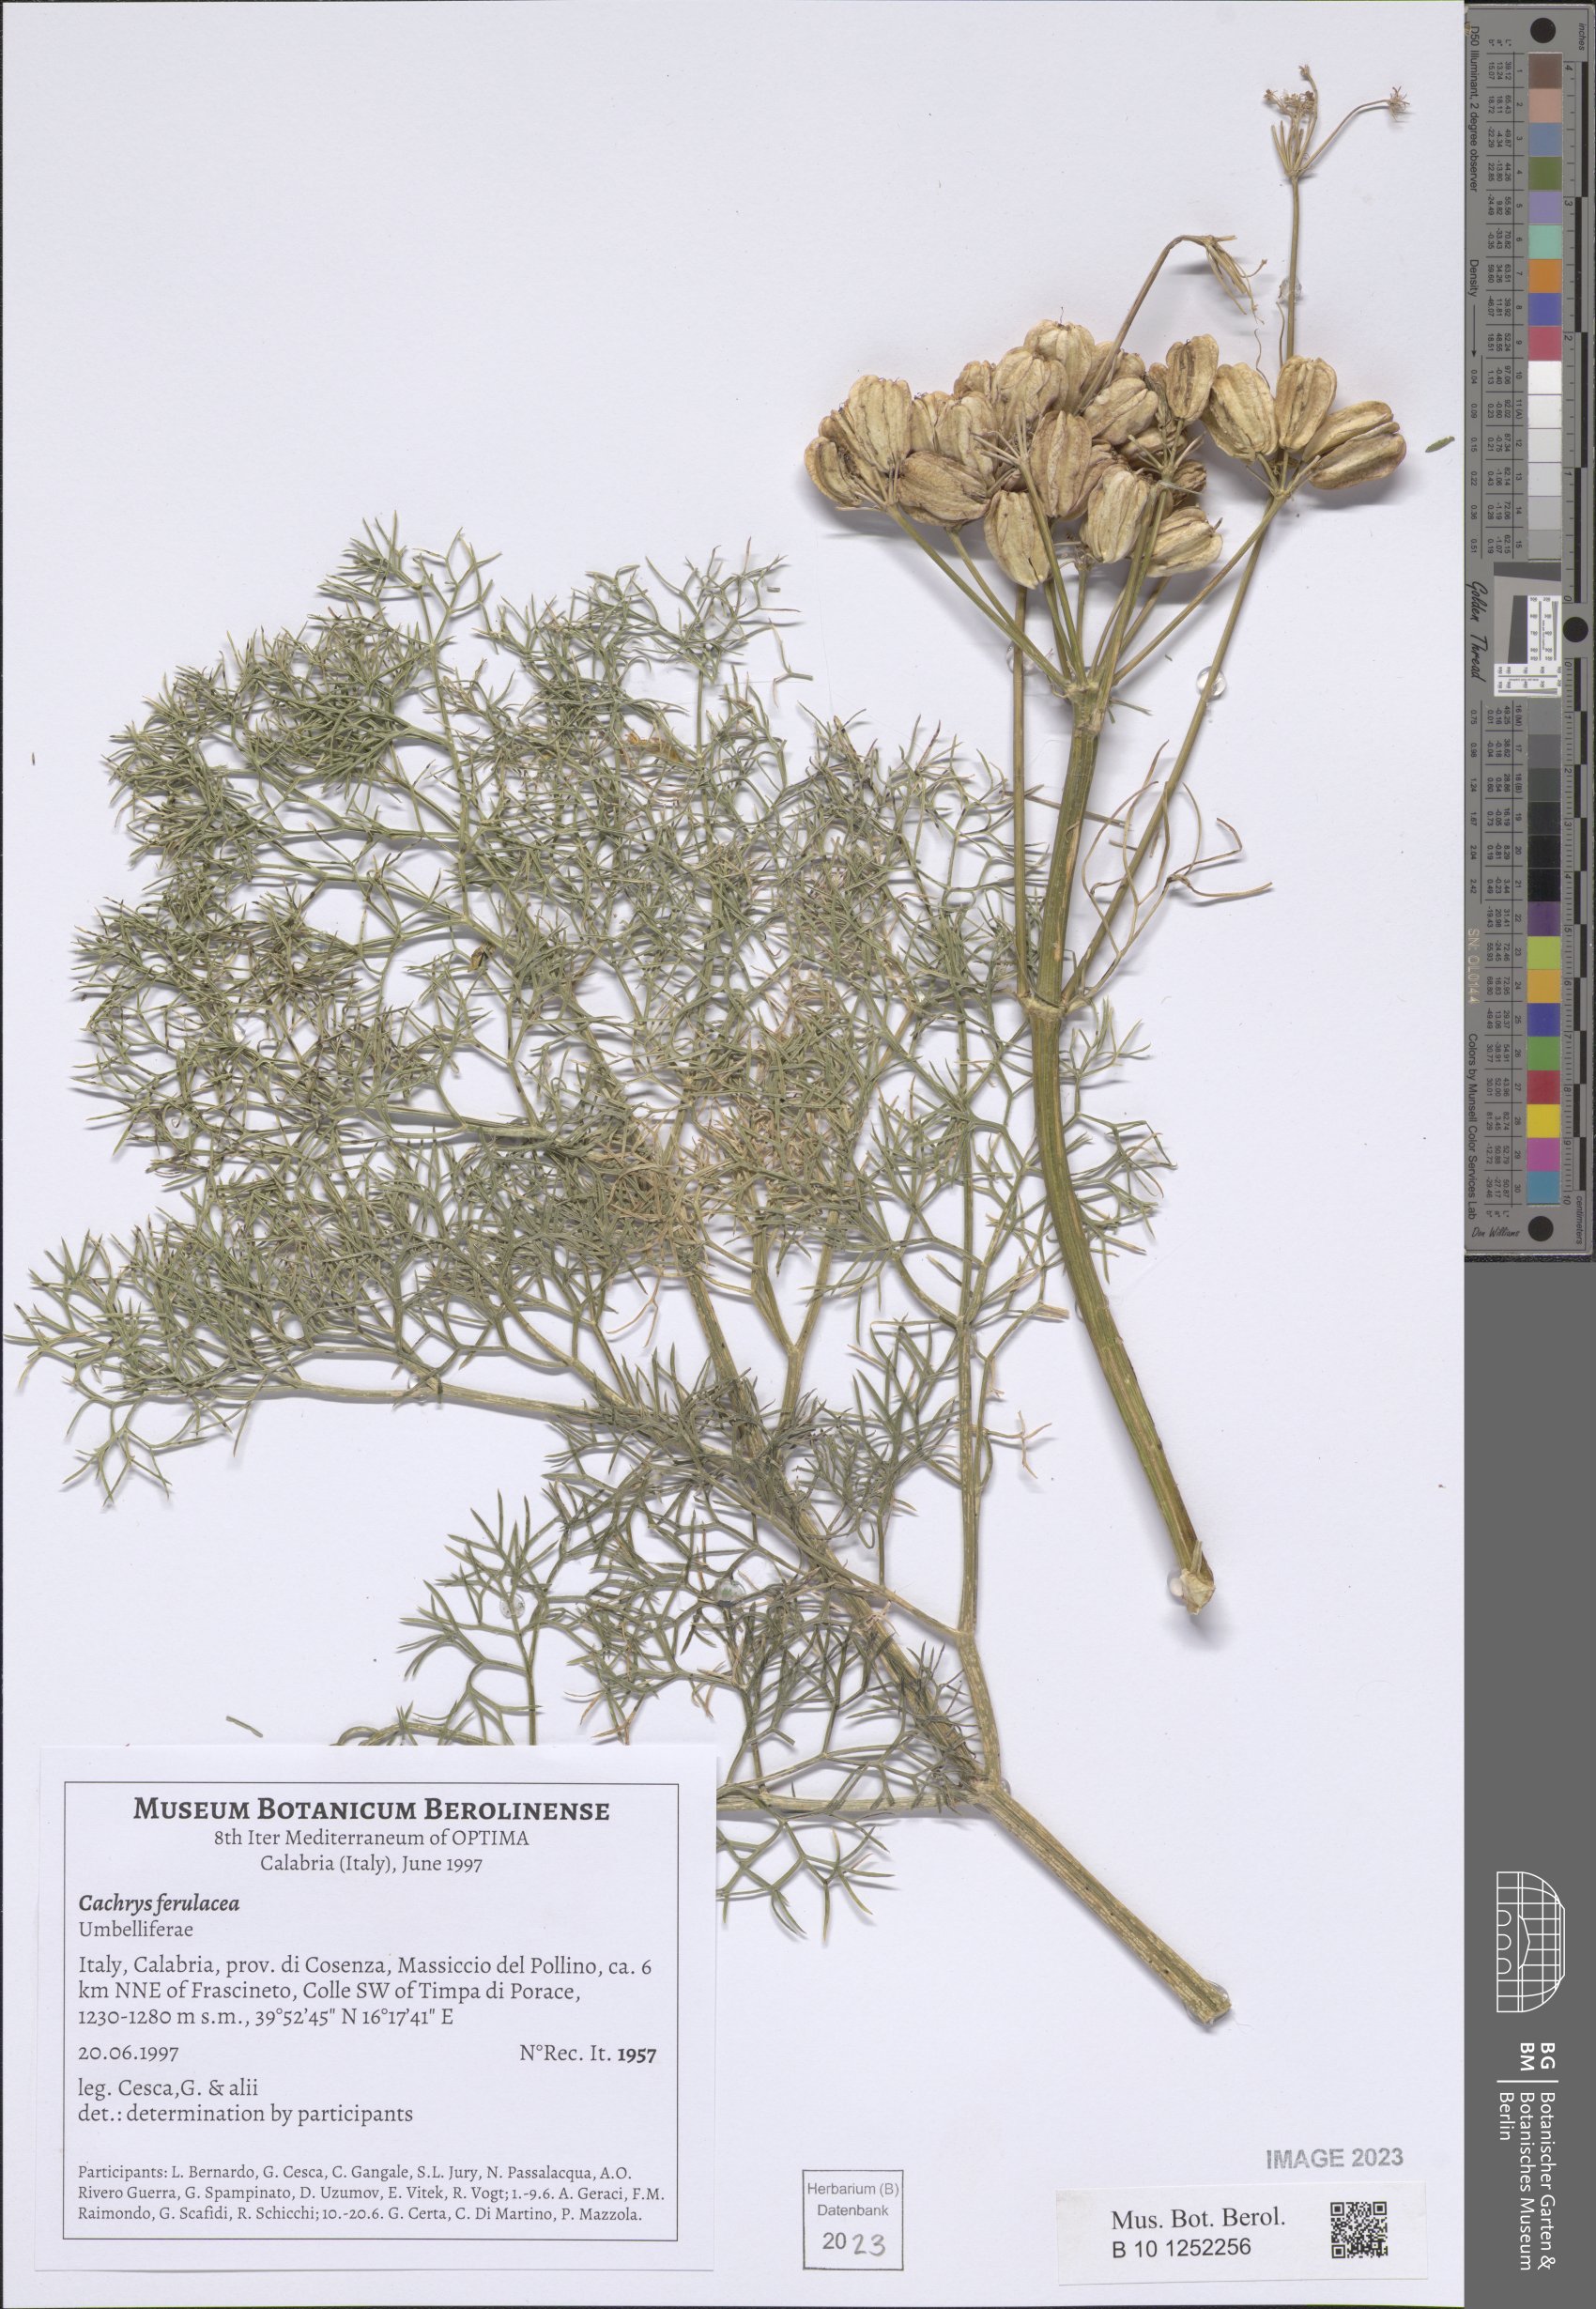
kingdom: Plantae
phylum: Tracheophyta
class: Magnoliopsida
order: Apiales
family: Apiaceae
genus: Prangos
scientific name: Prangos ferulacea
